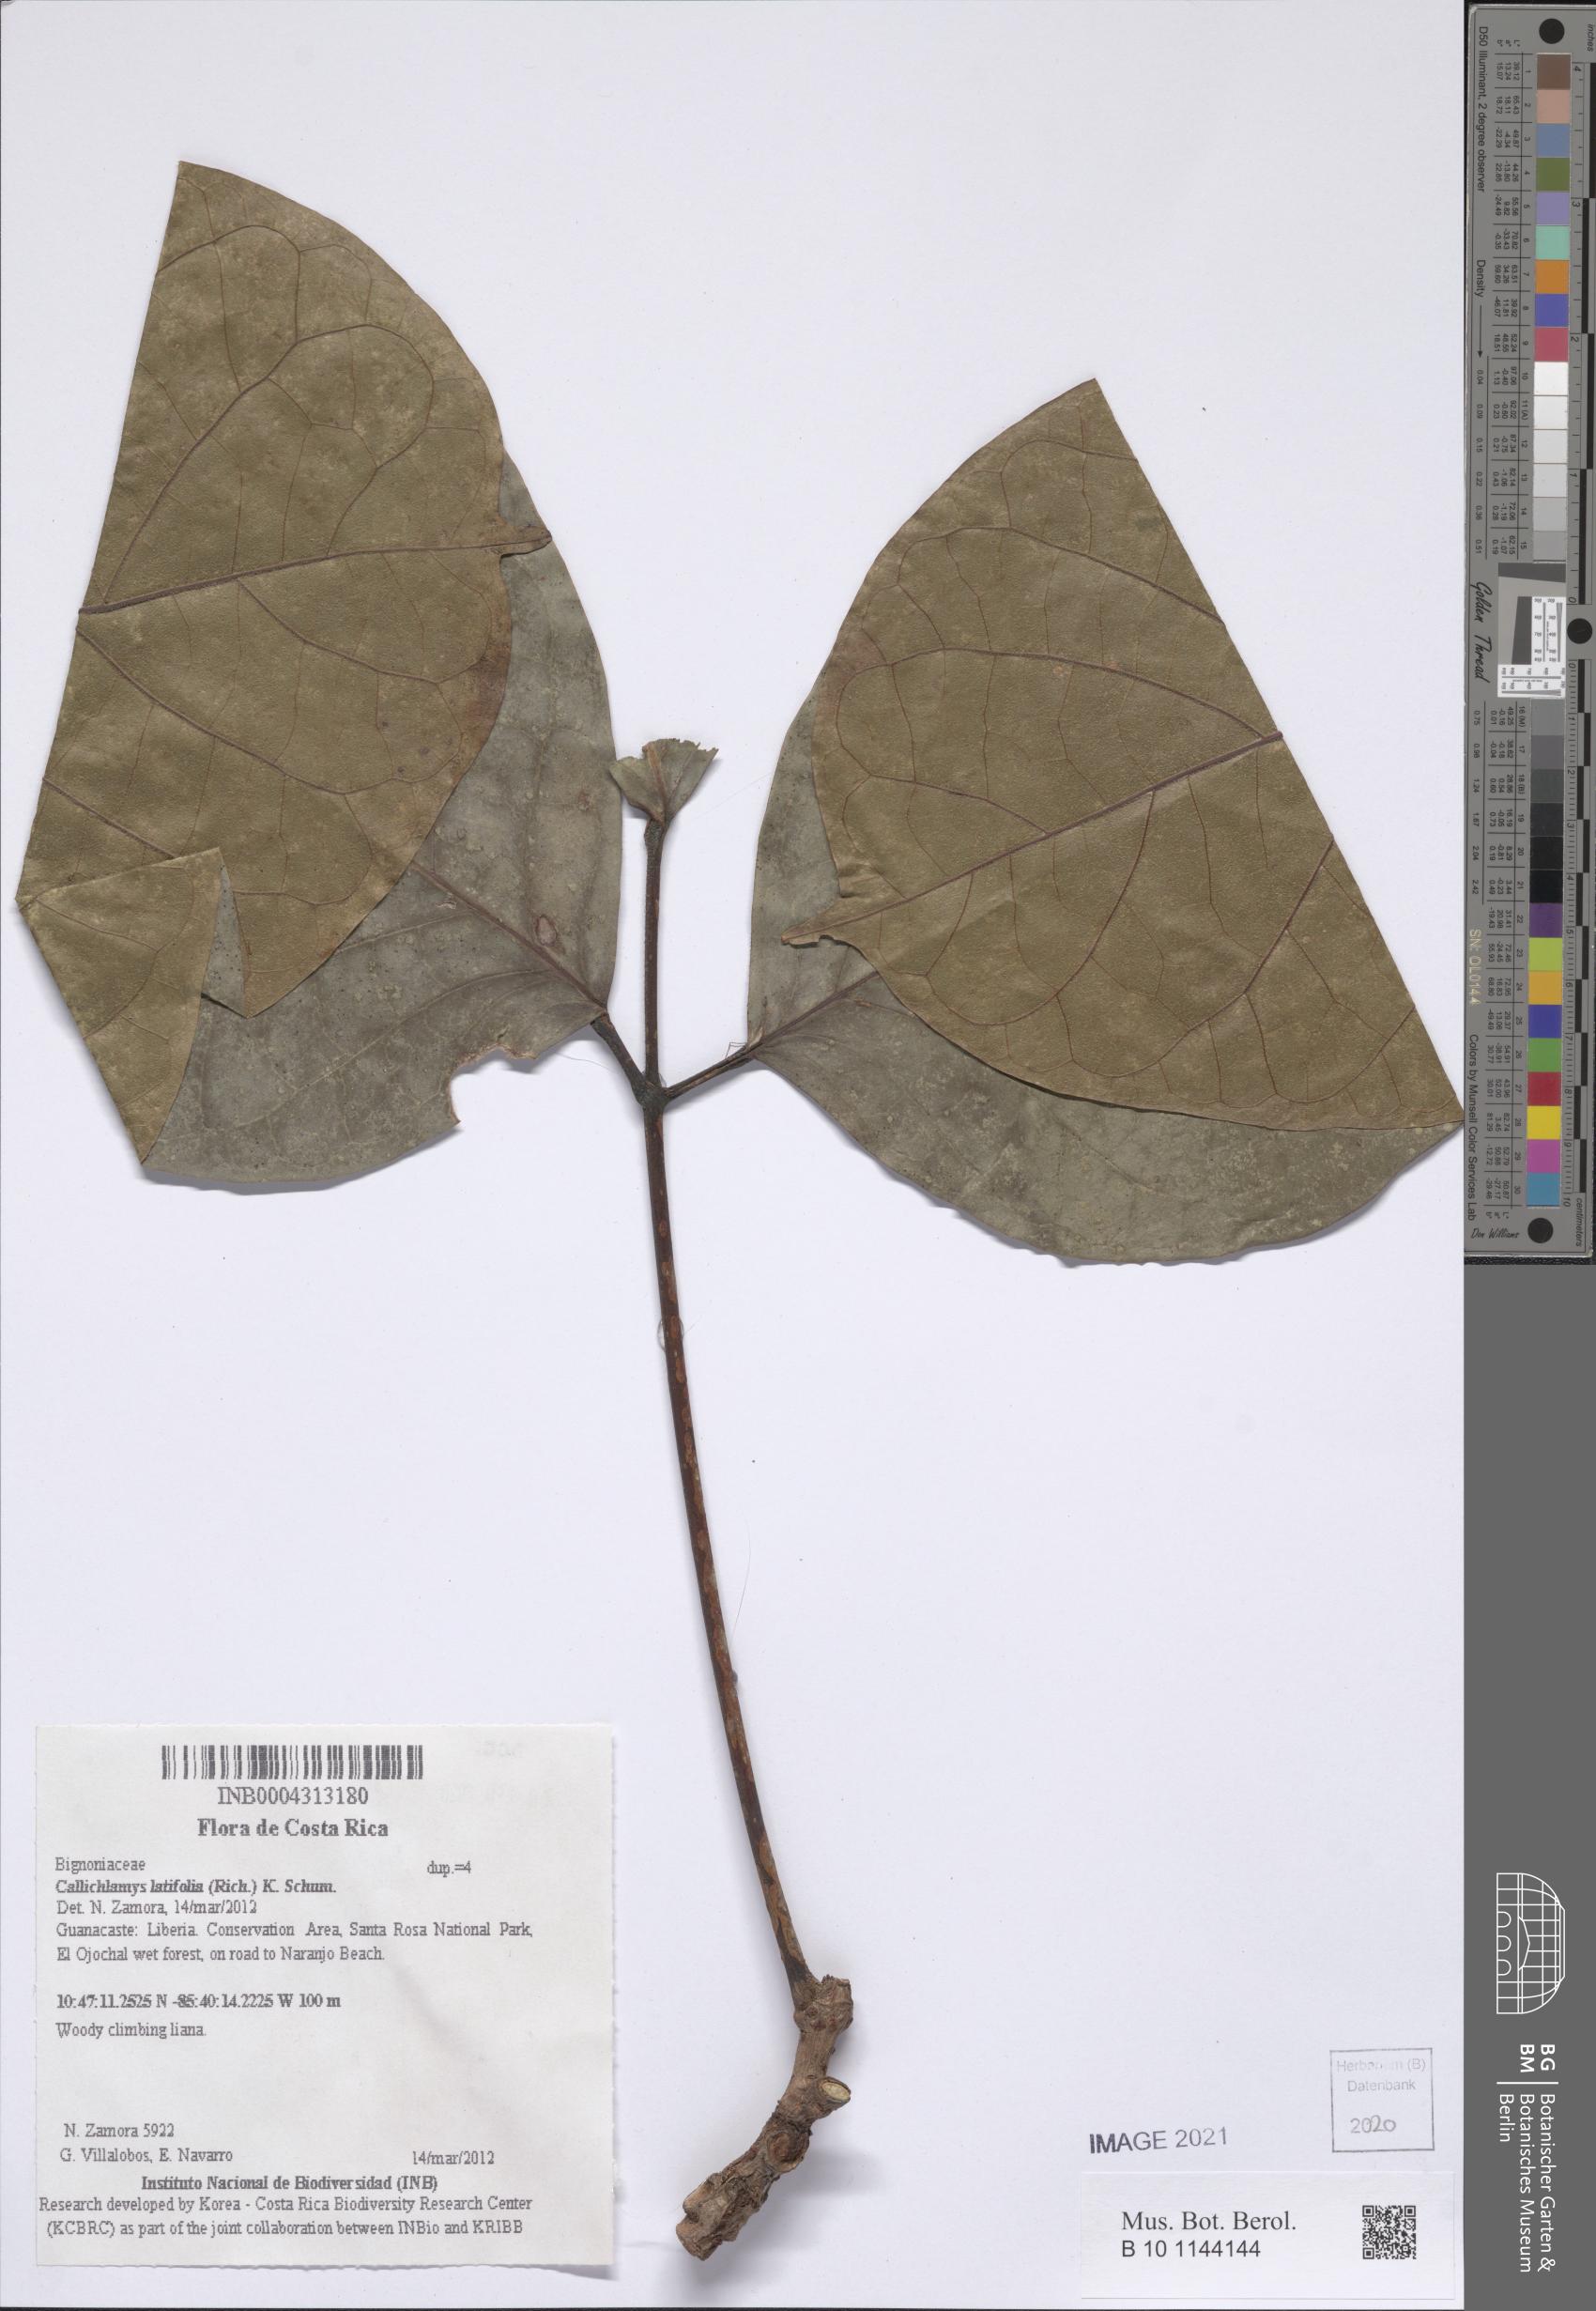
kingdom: Plantae
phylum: Tracheophyta
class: Magnoliopsida
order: Lamiales
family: Bignoniaceae
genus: Callichlamys
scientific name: Callichlamys latifolia
